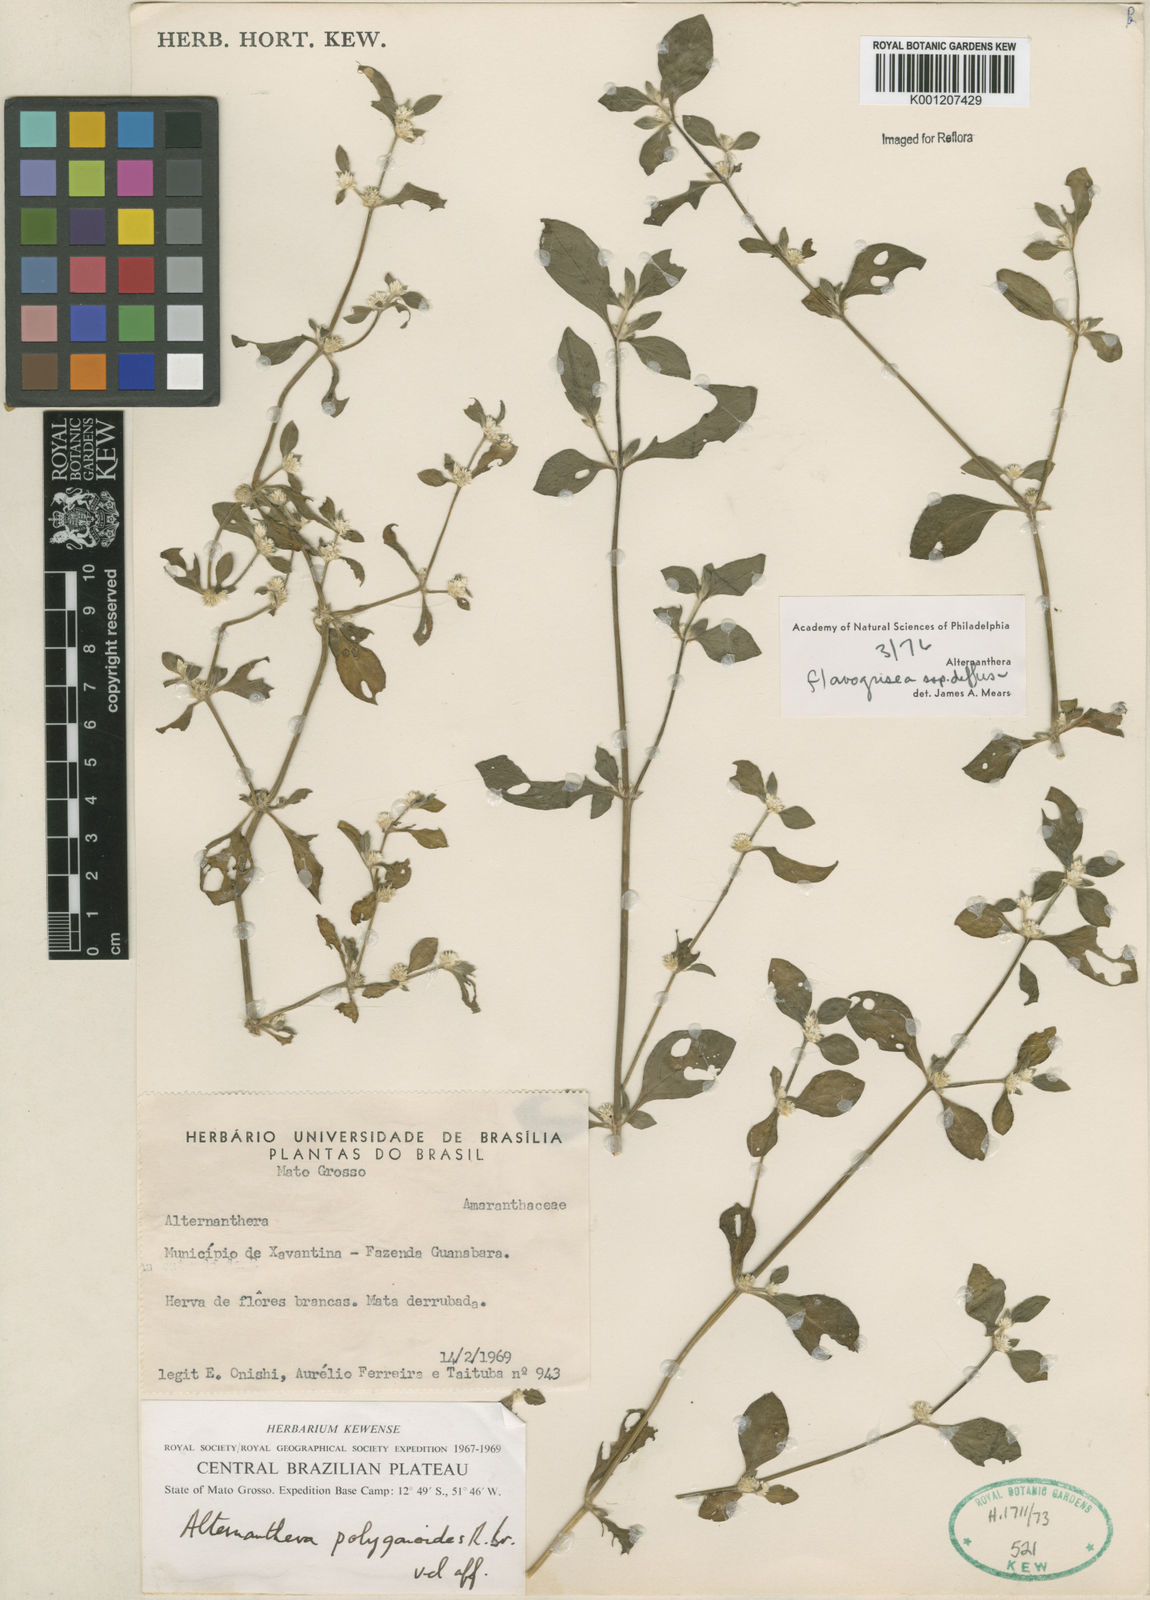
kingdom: Plantae
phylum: Tracheophyta
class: Magnoliopsida
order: Caryophyllales
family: Amaranthaceae
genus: Alternanthera
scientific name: Alternanthera halimifolia
